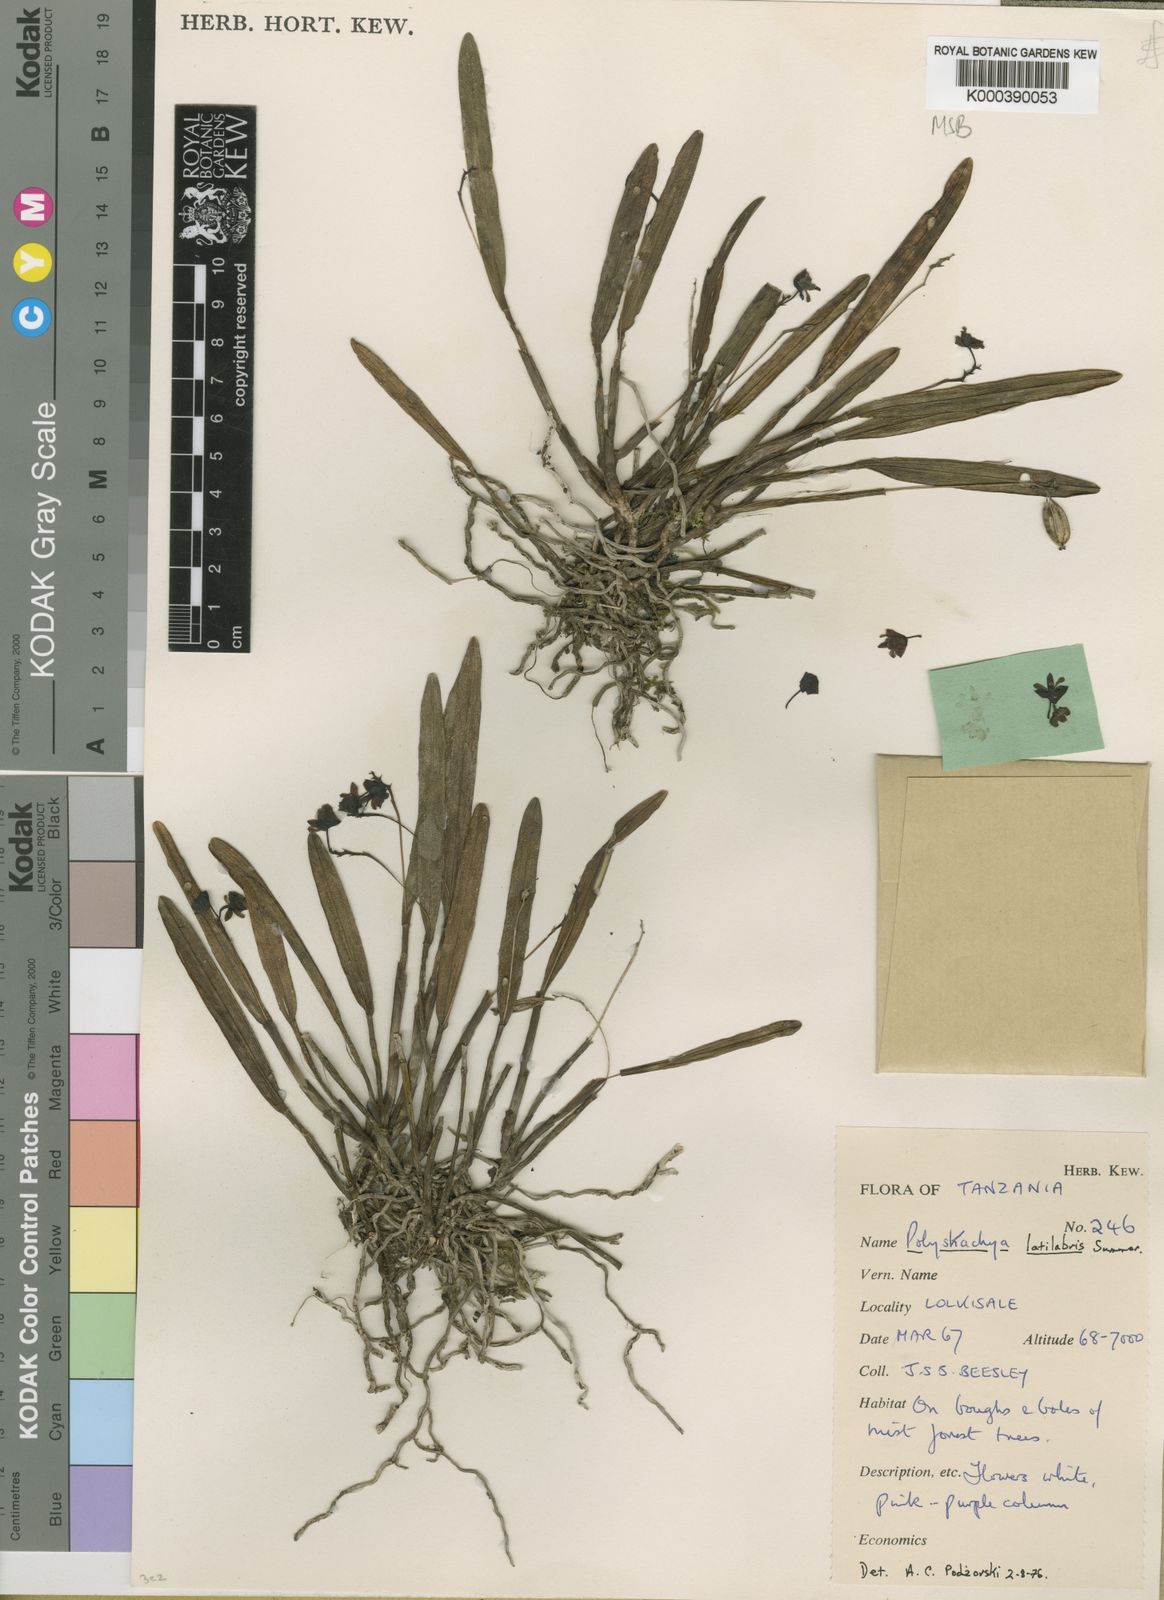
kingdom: Plantae
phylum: Tracheophyta
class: Liliopsida
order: Asparagales
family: Orchidaceae
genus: Polystachya
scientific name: Polystachya caespitifica
